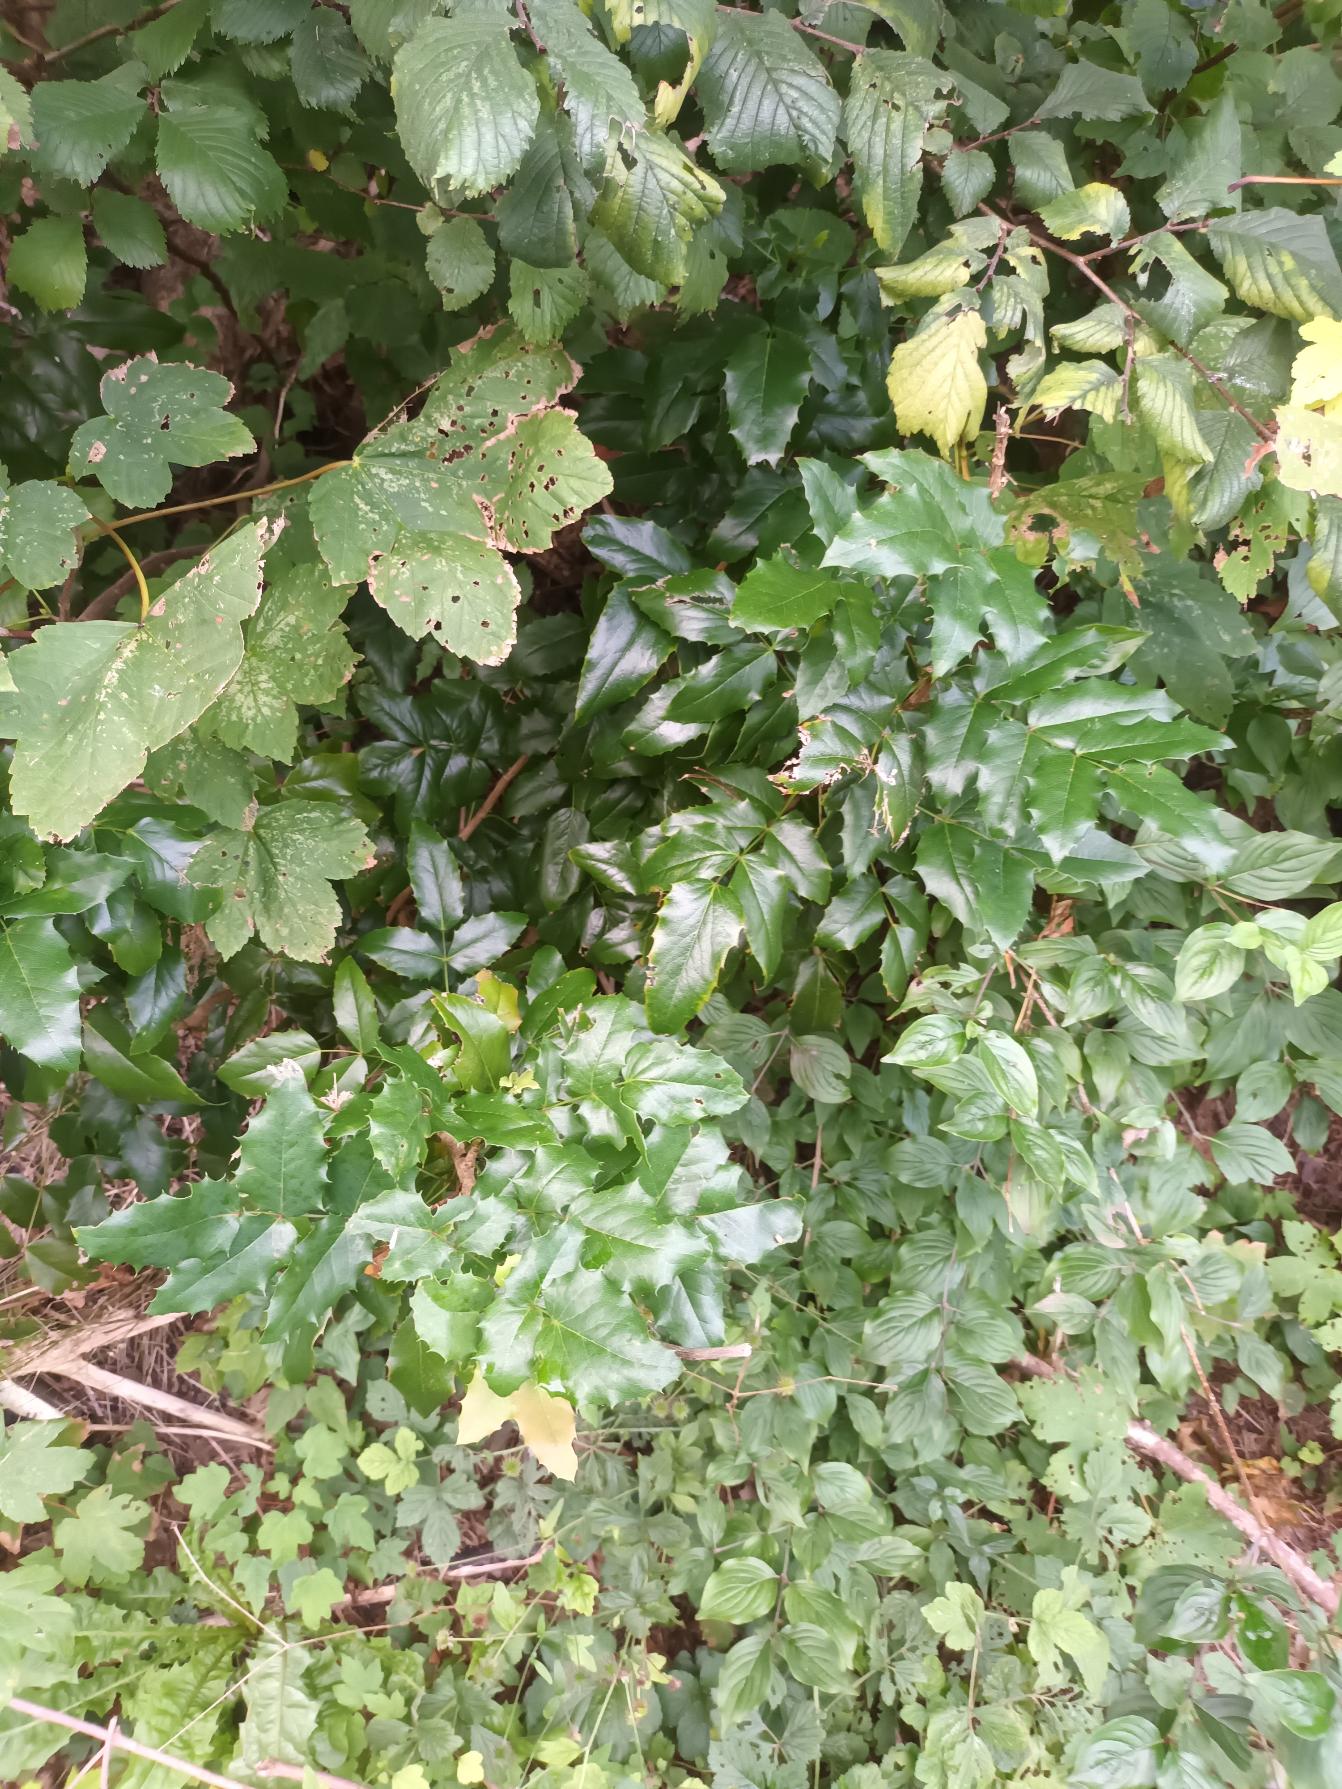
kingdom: Plantae
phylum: Tracheophyta
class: Magnoliopsida
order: Ranunculales
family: Berberidaceae
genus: Mahonia
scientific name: Mahonia aquifolium
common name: Almindelig mahonie
